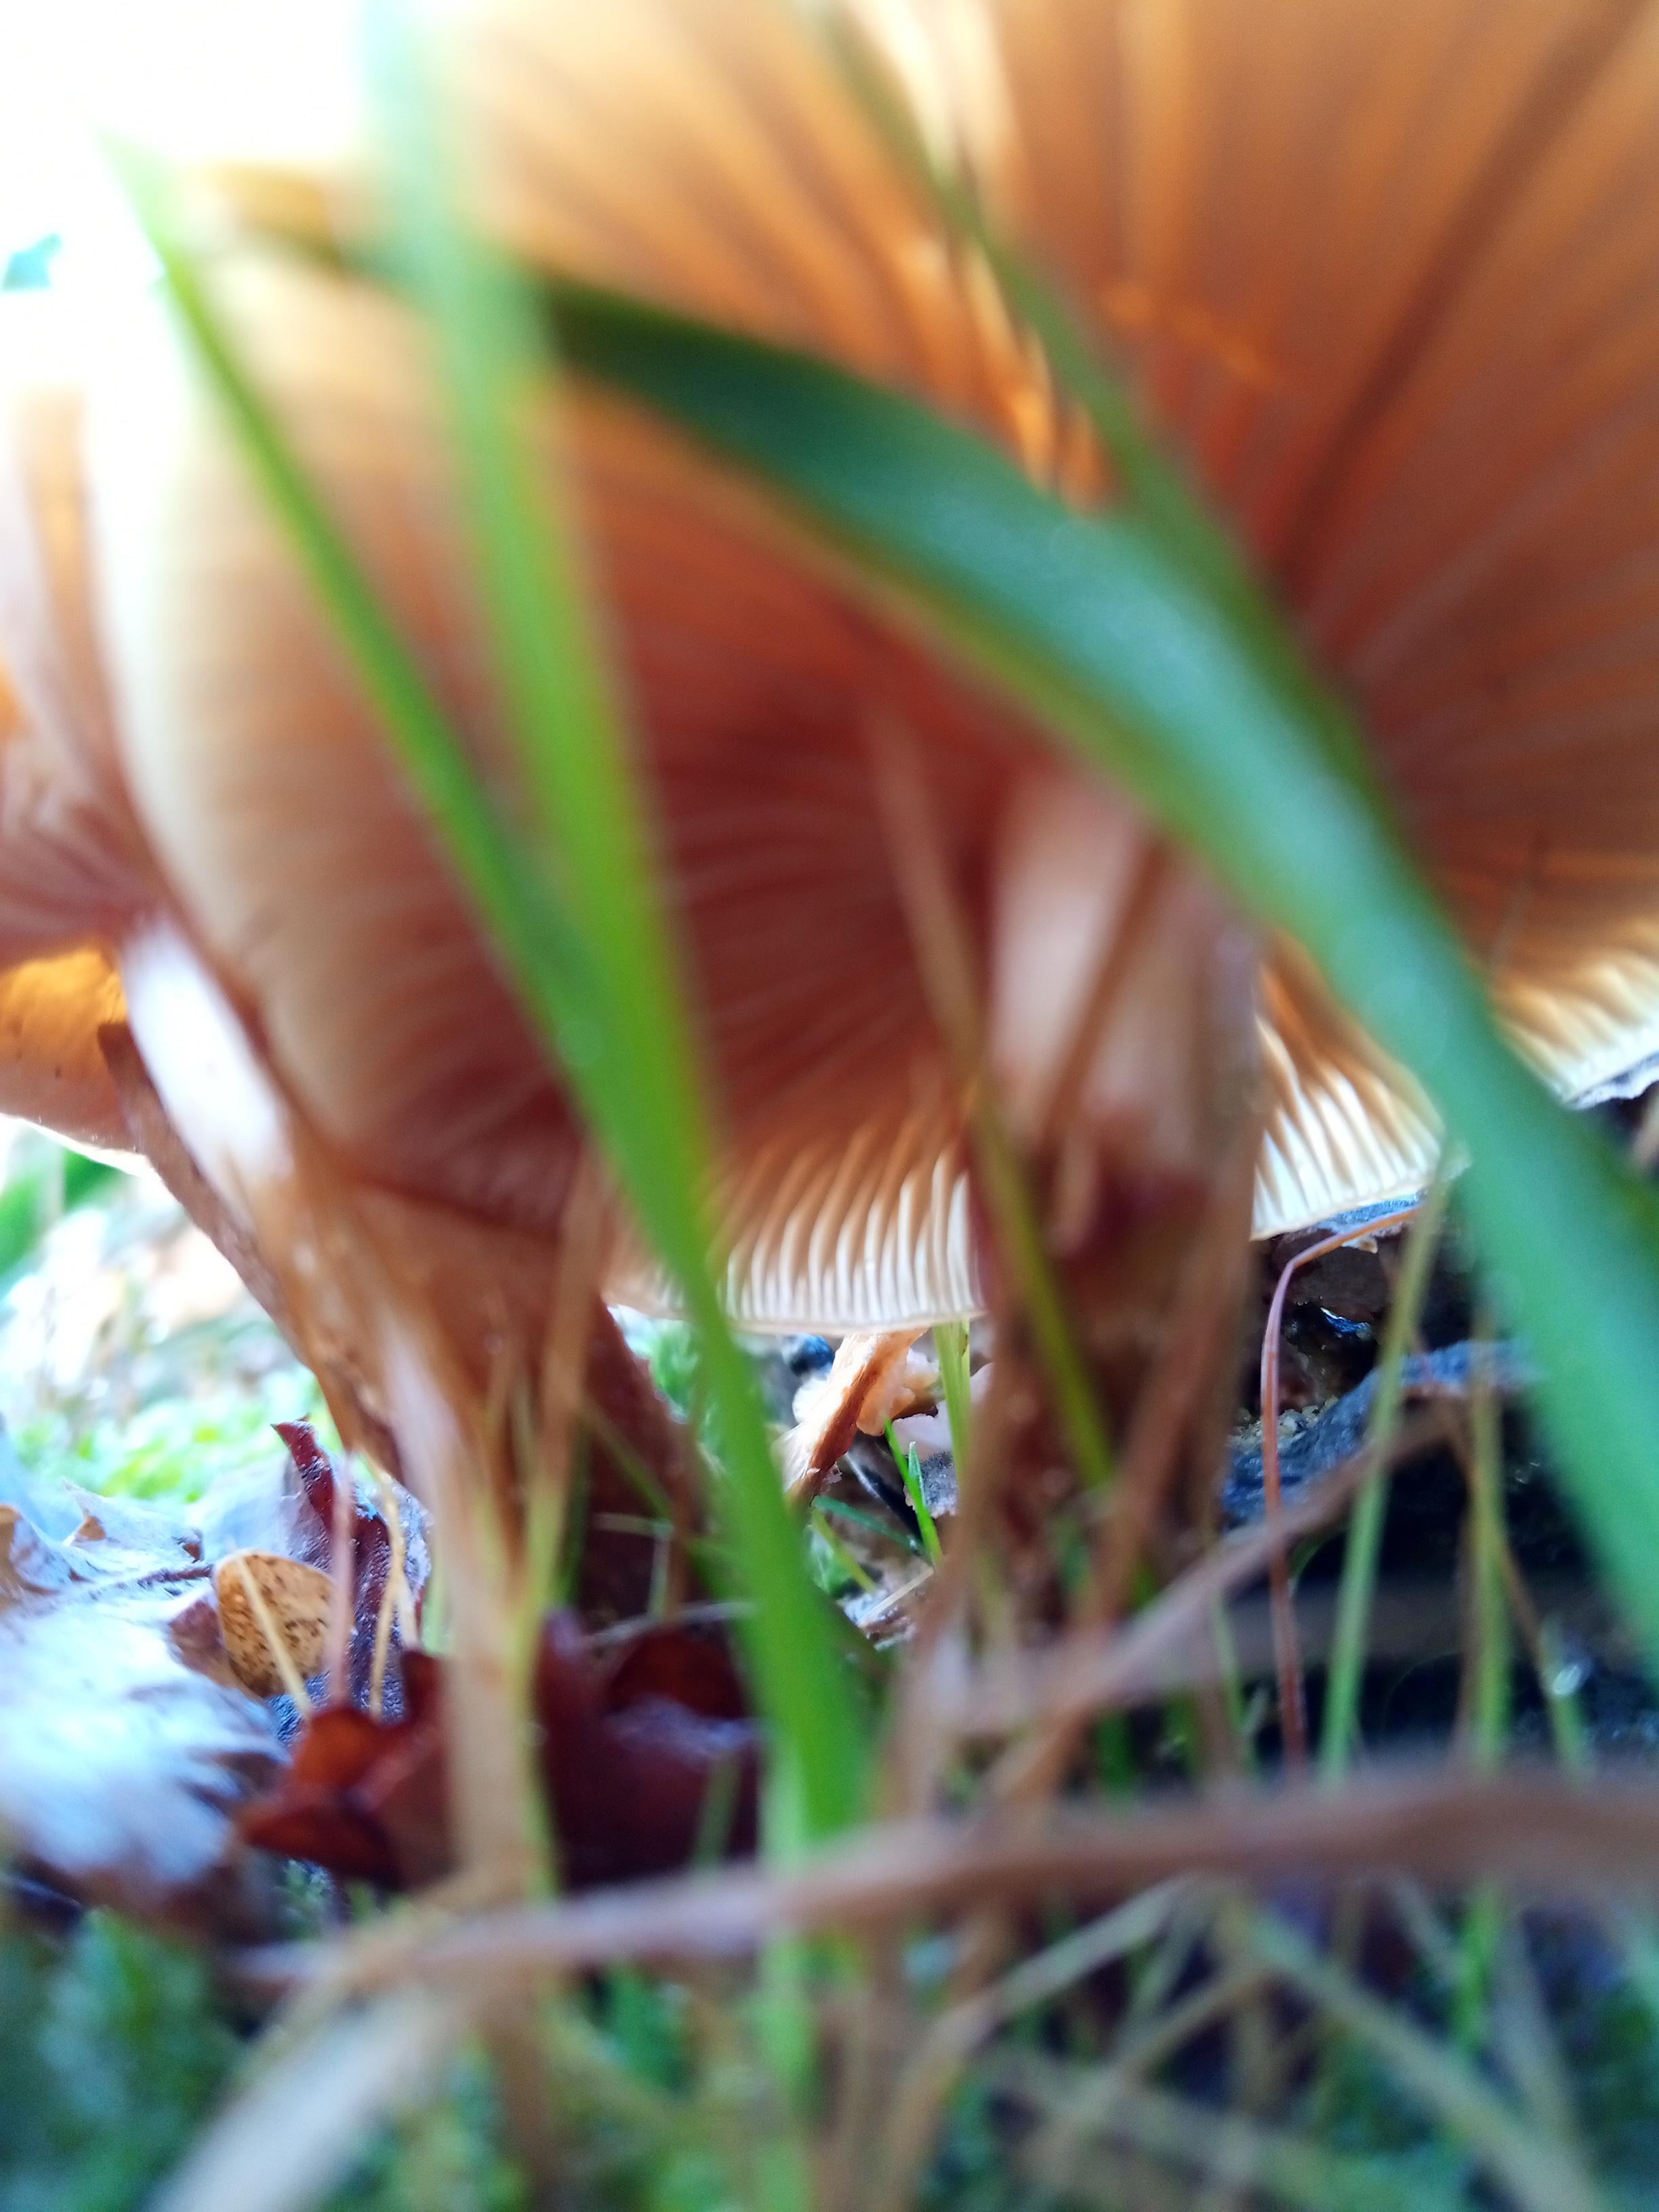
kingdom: Fungi
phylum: Basidiomycota
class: Agaricomycetes
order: Agaricales
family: Strophariaceae
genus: Kuehneromyces
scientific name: Kuehneromyces mutabilis
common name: foranderlig skælhat
